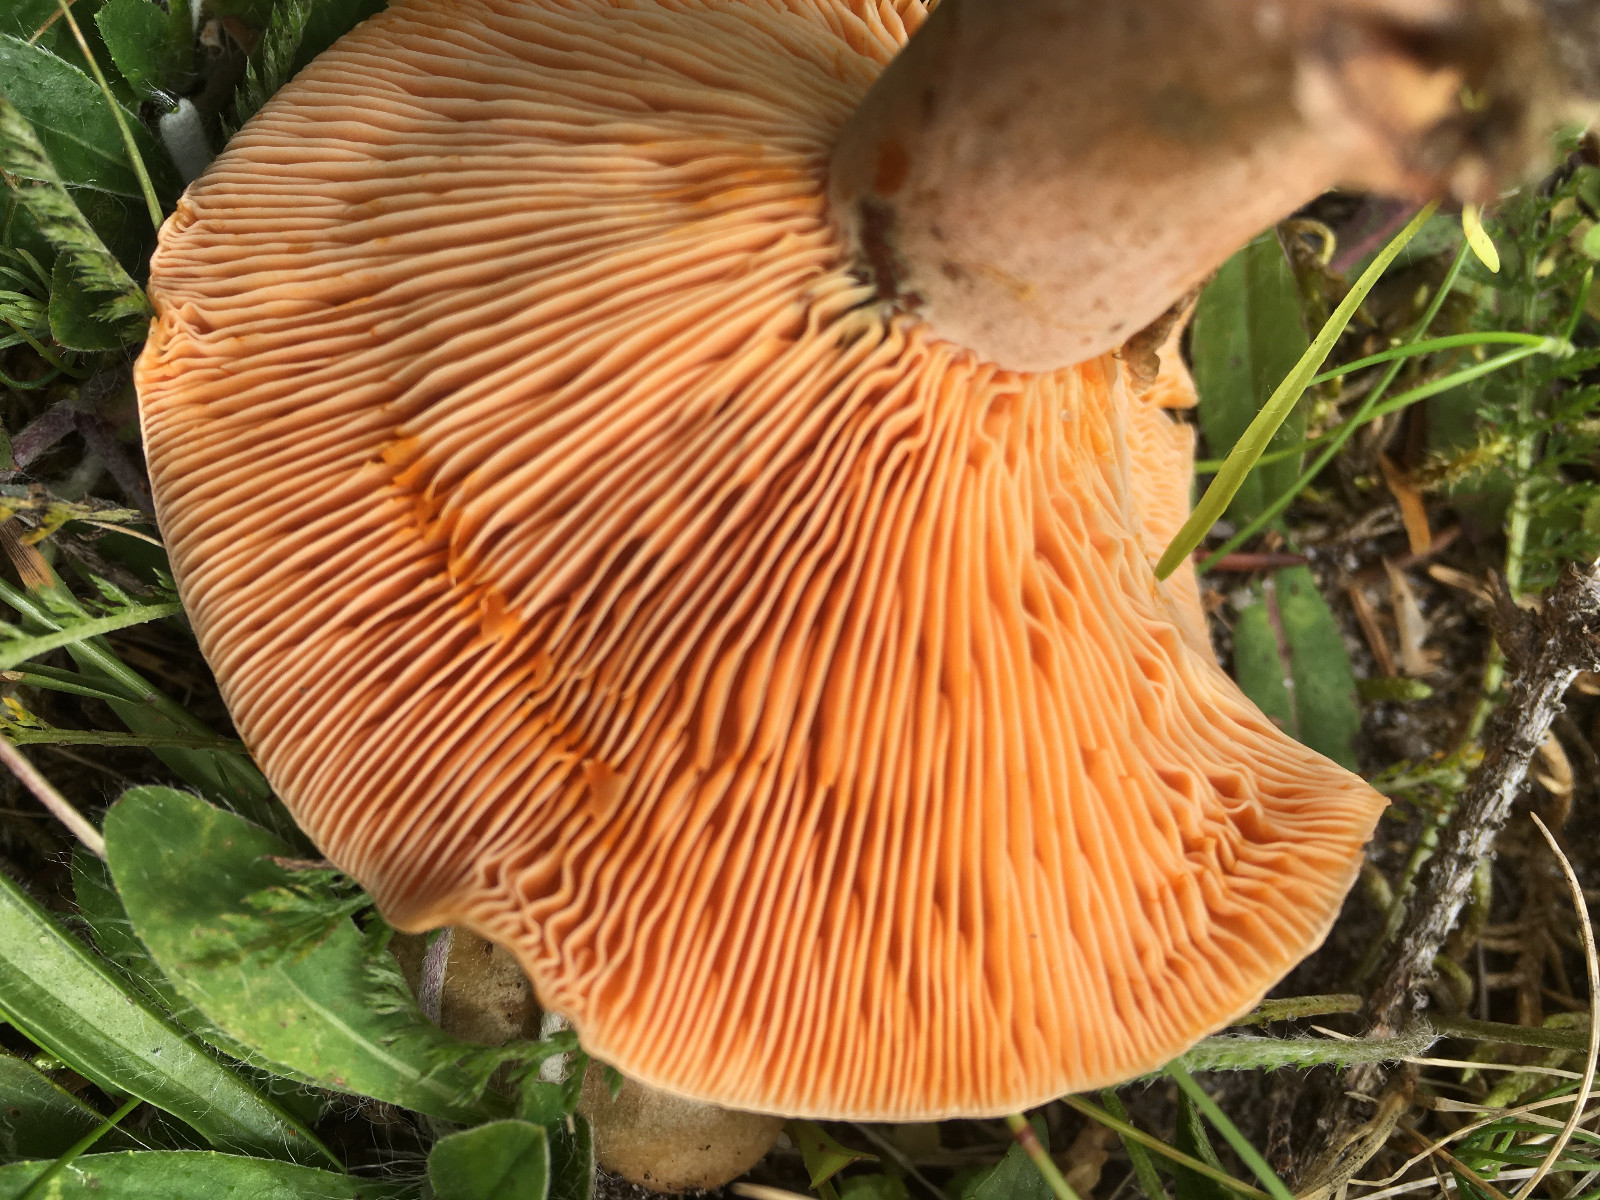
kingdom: Fungi
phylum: Basidiomycota
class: Agaricomycetes
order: Russulales
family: Russulaceae
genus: Lactarius
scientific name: Lactarius deterrimus
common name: gran-mælkehat
